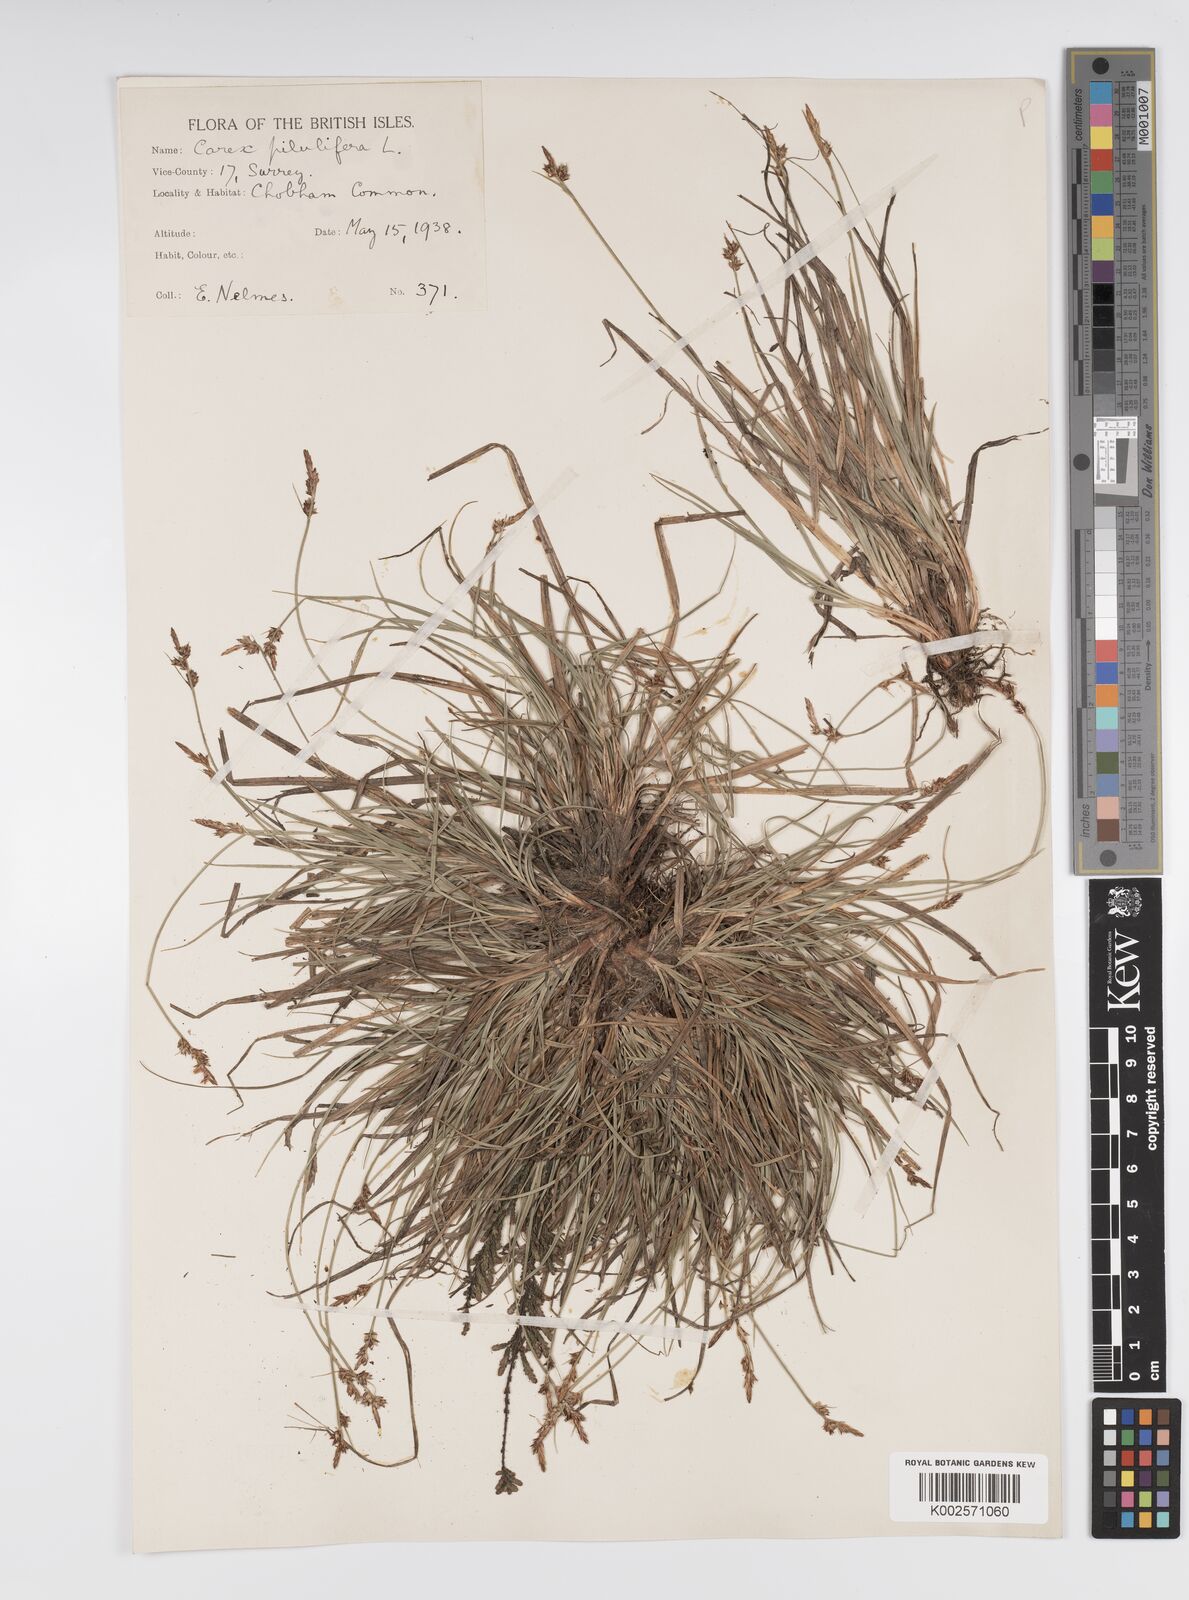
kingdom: Plantae
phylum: Tracheophyta
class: Liliopsida
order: Poales
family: Cyperaceae
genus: Carex
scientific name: Carex pilulifera
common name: Pill sedge
